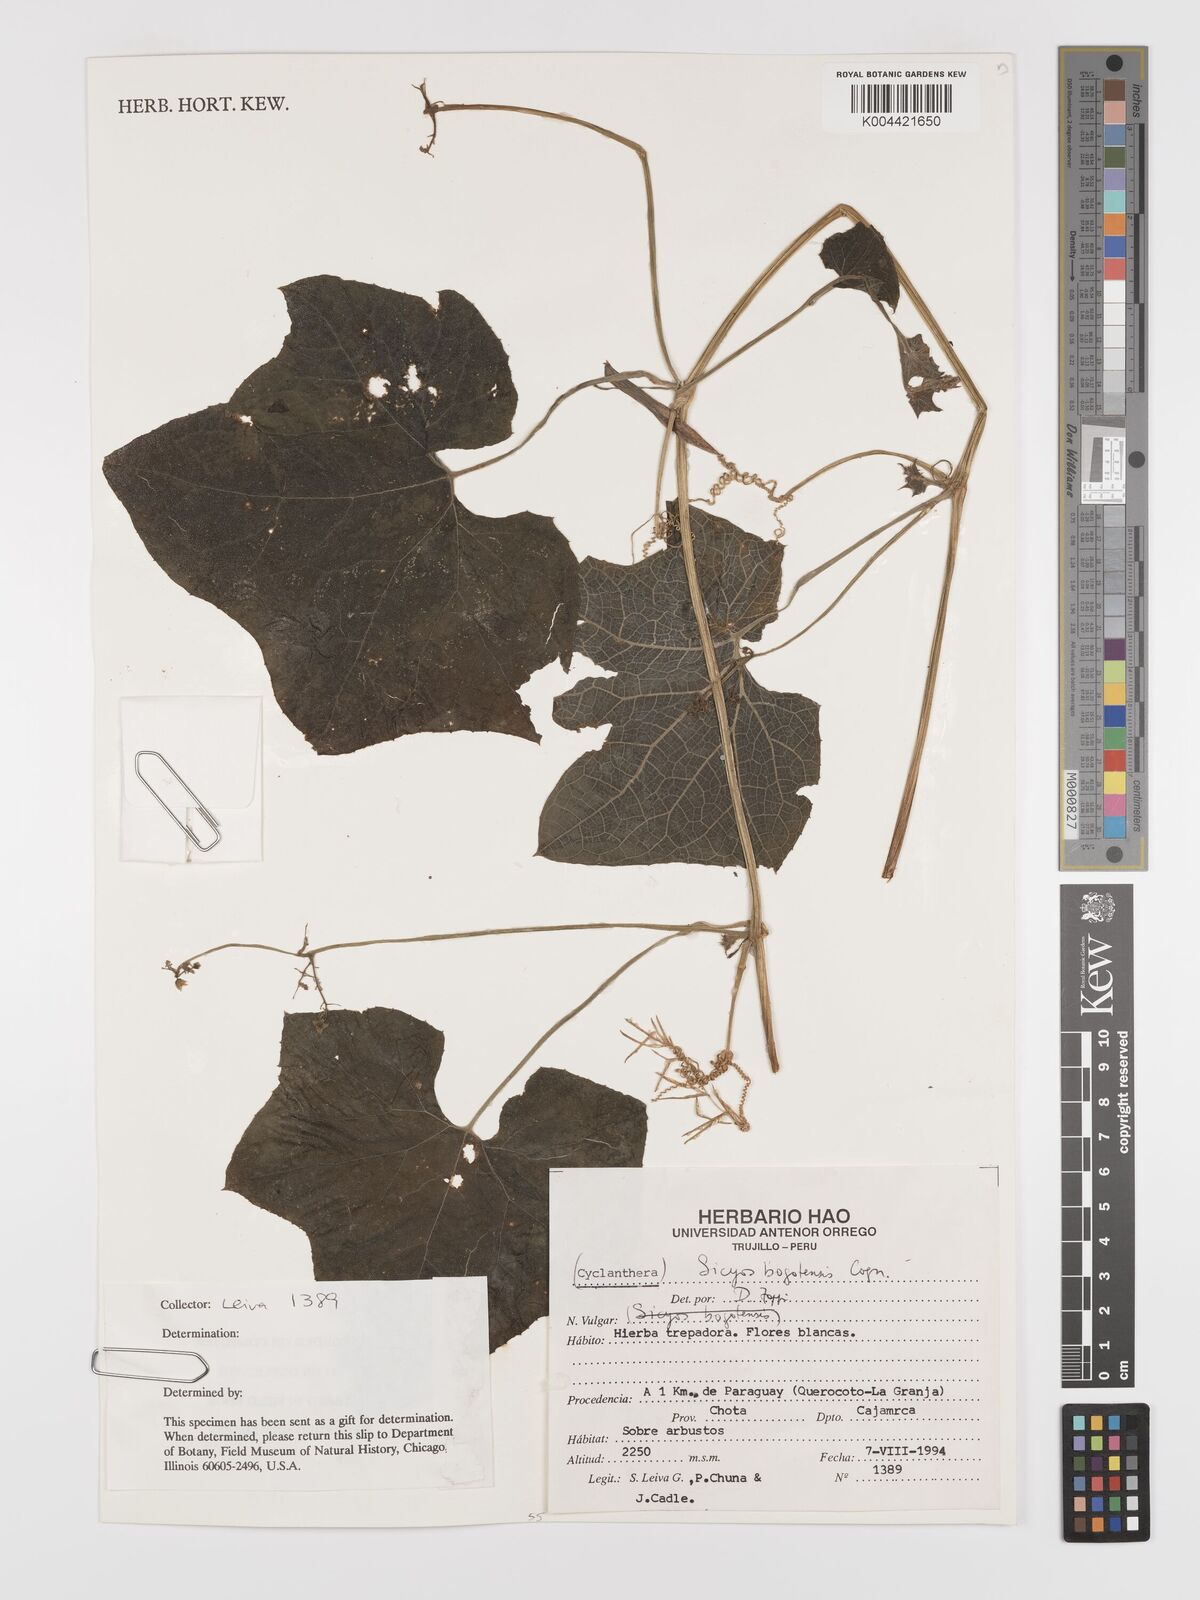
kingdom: Plantae
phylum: Tracheophyta
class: Magnoliopsida
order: Cucurbitales
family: Cucurbitaceae
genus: Sicyos
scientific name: Sicyos bogotensis
